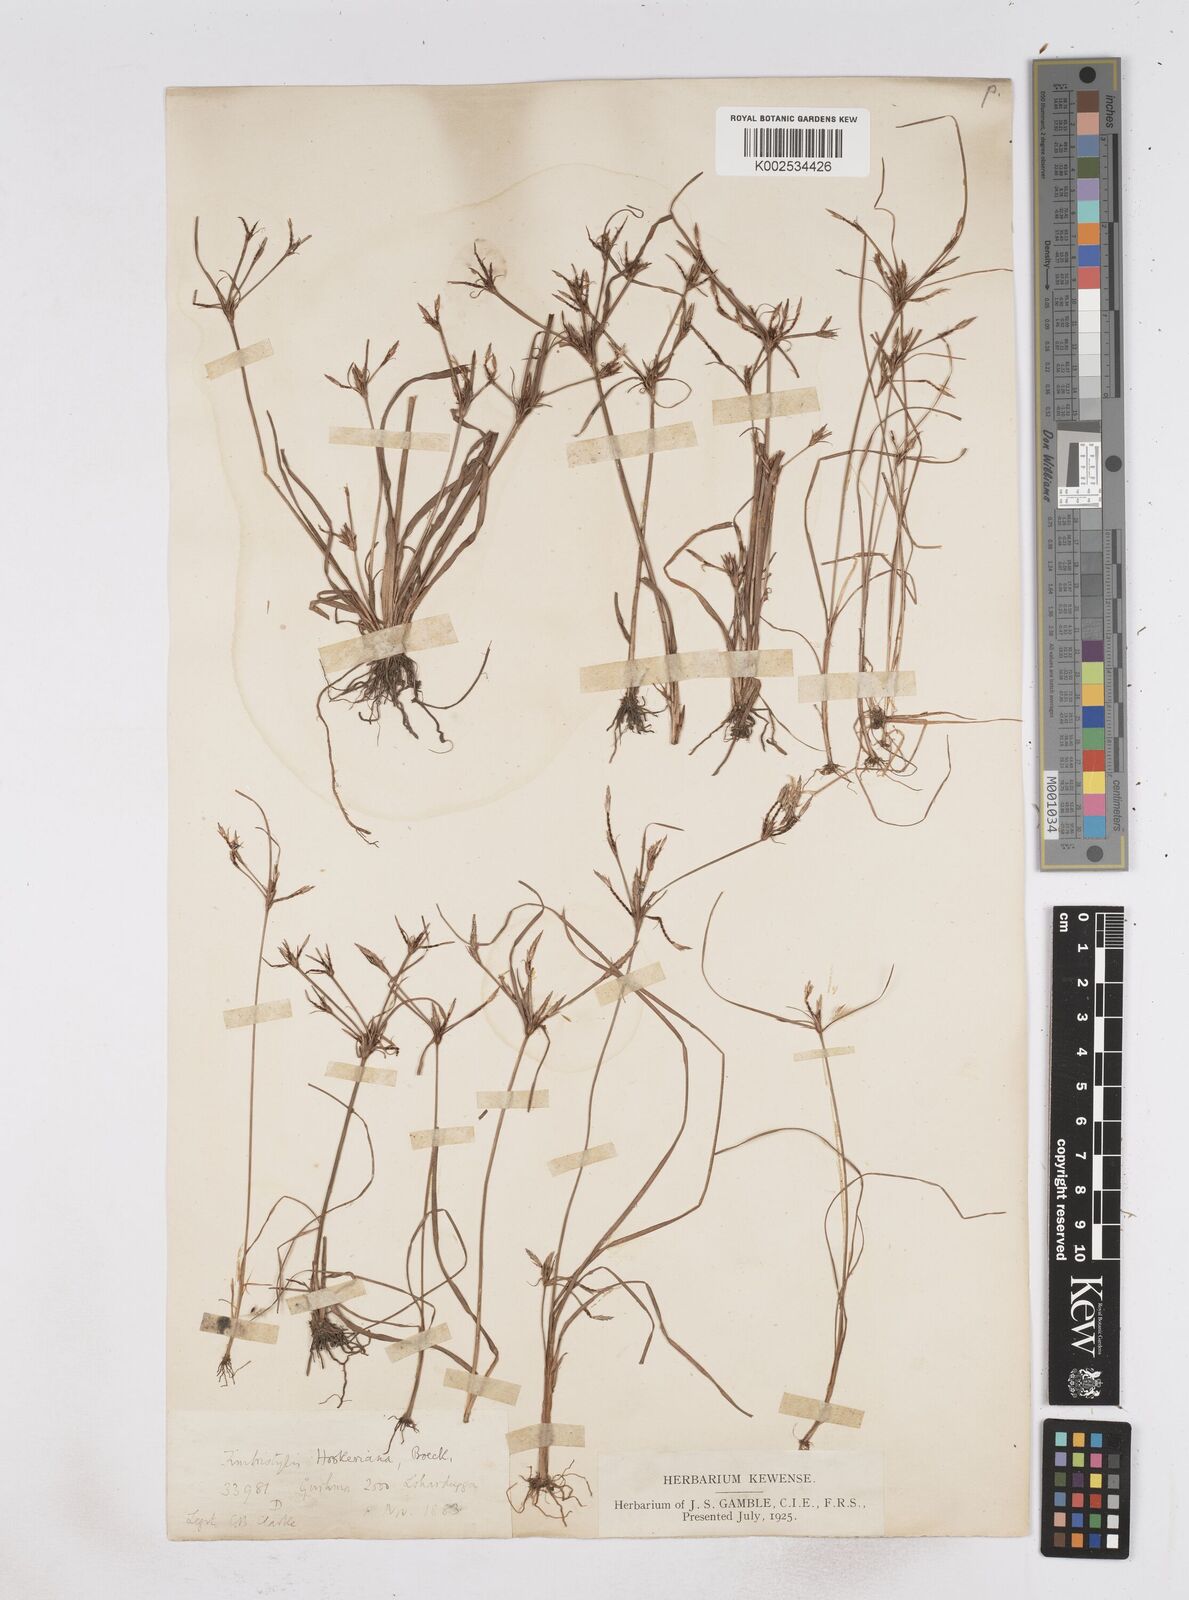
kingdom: Plantae
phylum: Tracheophyta
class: Liliopsida
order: Poales
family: Cyperaceae
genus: Fimbristylis
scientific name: Fimbristylis hookeriana
